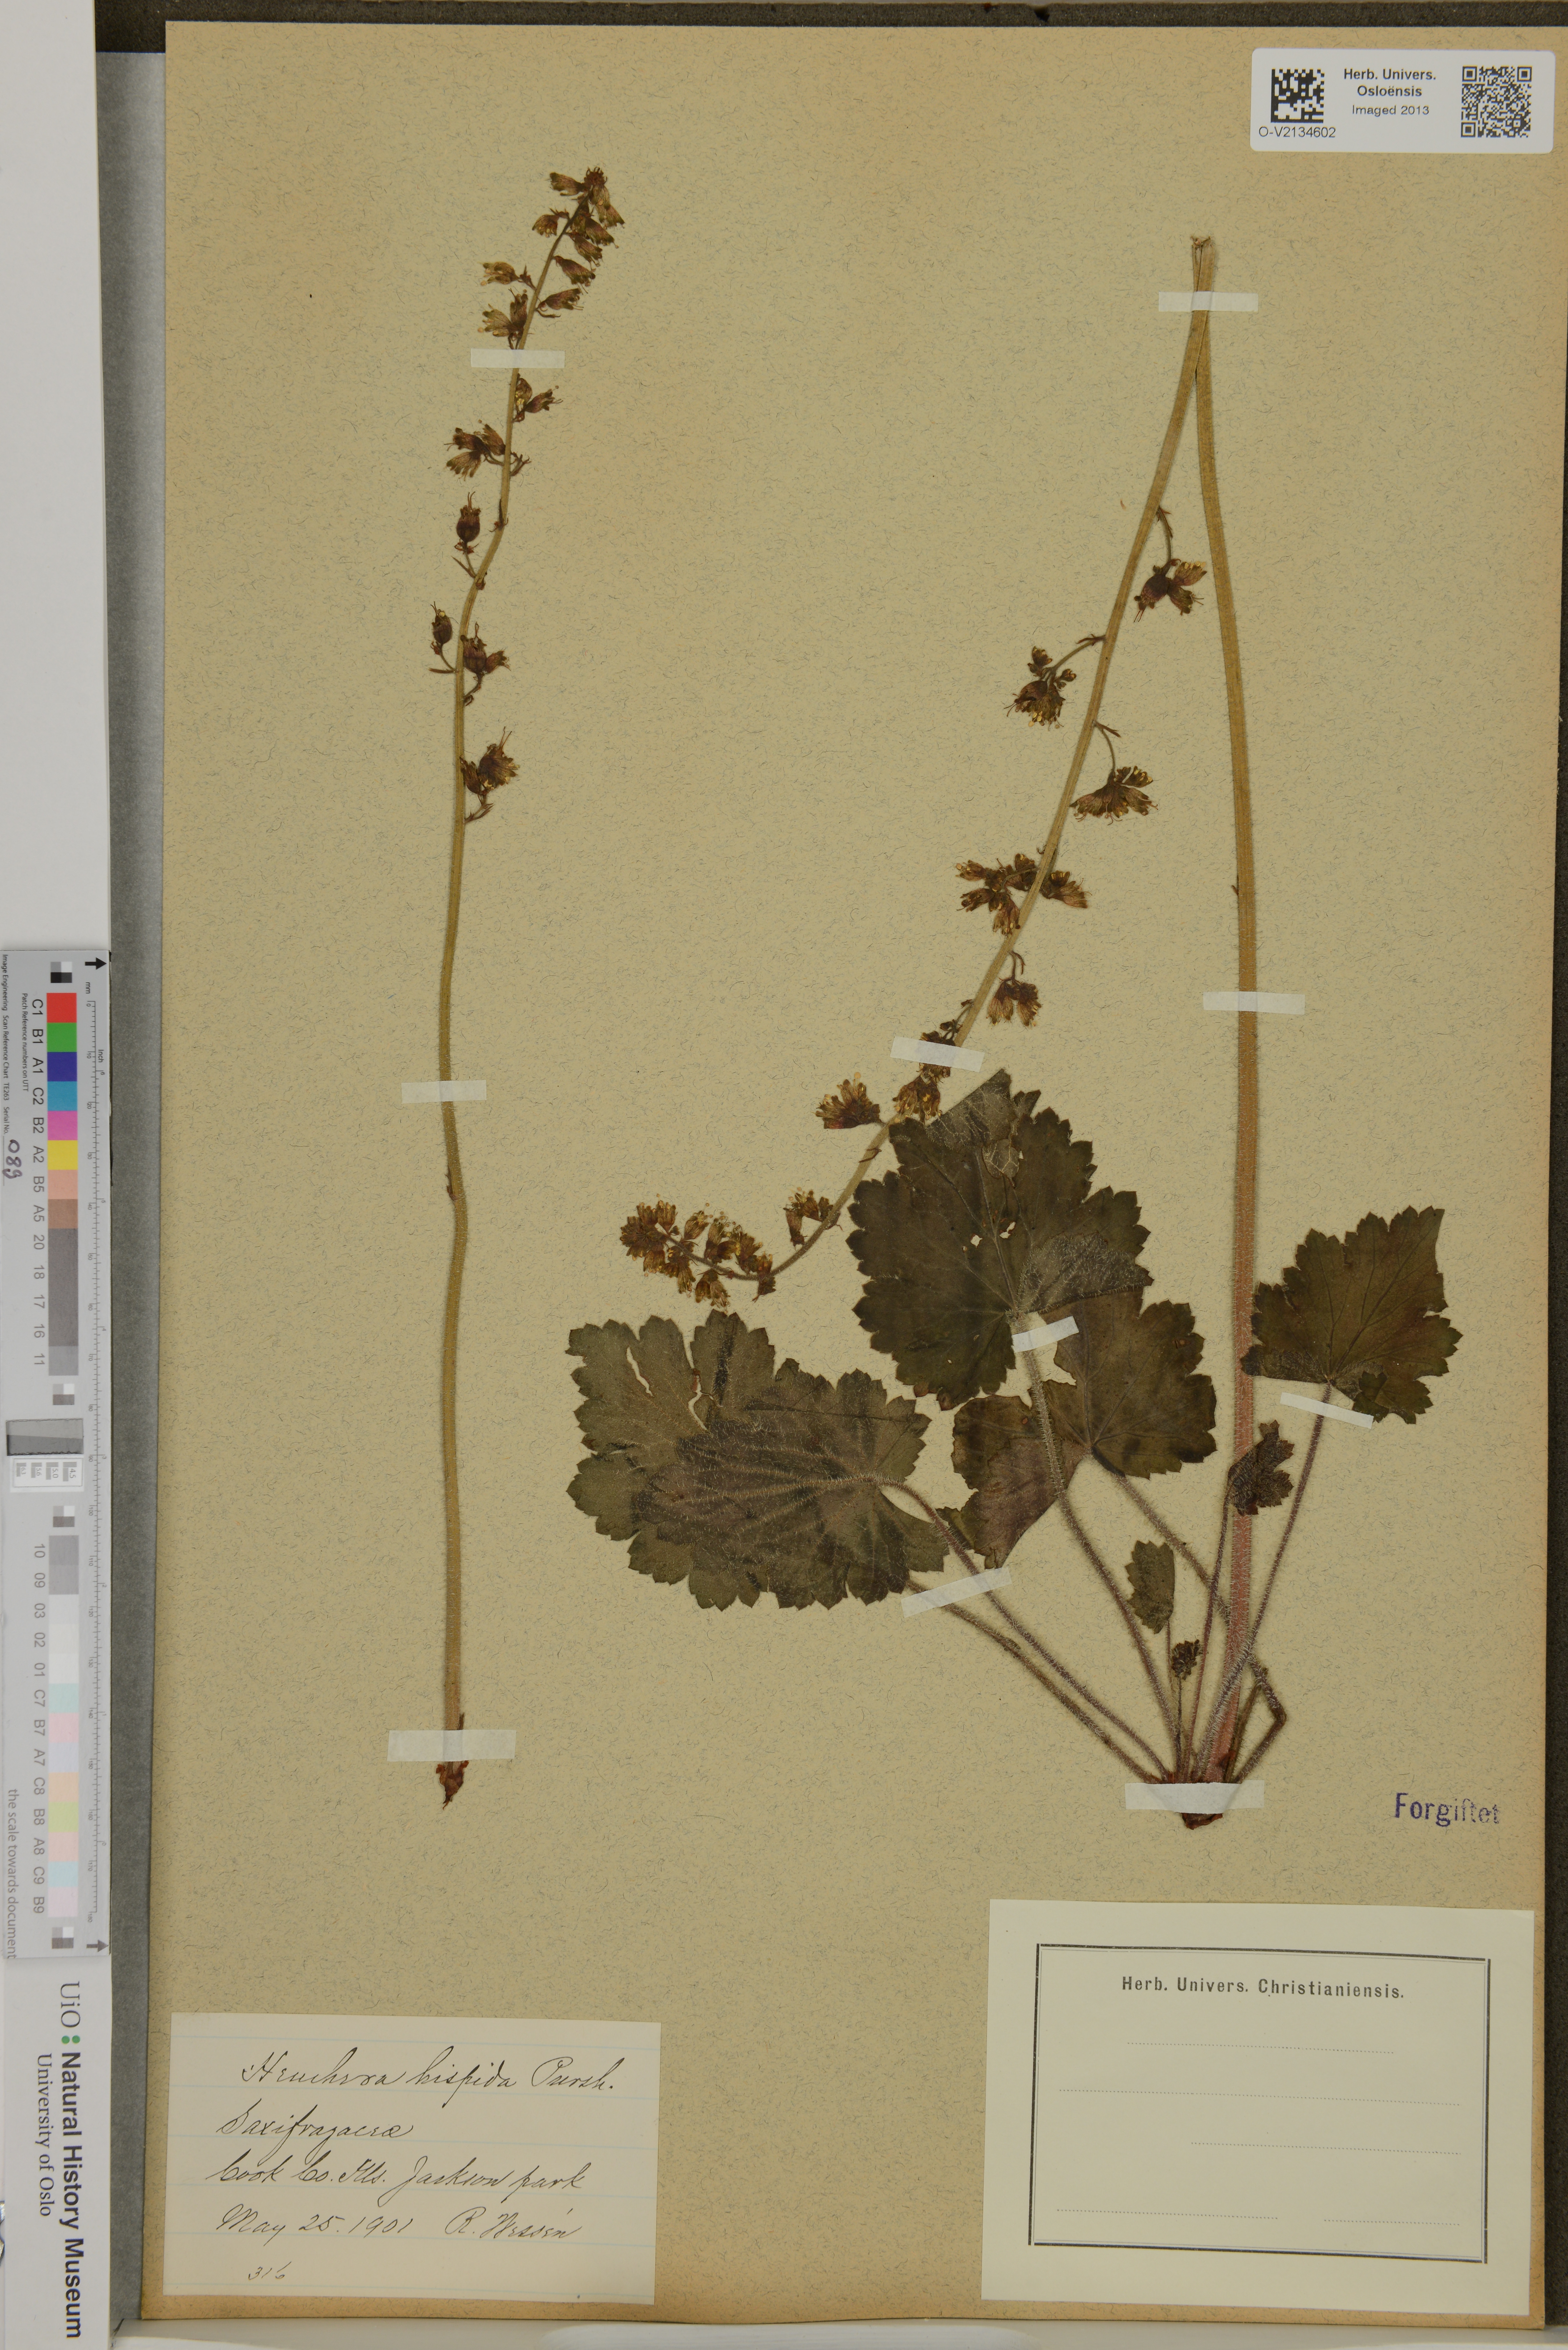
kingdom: Plantae
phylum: Tracheophyta
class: Magnoliopsida
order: Saxifragales
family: Saxifragaceae
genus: Heuchera
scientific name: Heuchera
